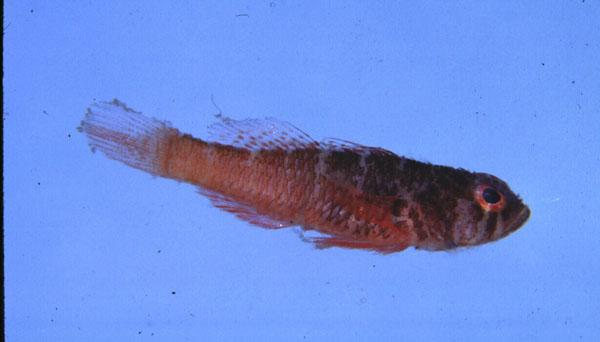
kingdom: Animalia
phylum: Chordata
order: Perciformes
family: Gobiidae
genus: Trimma
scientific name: Trimma mendelssohni
